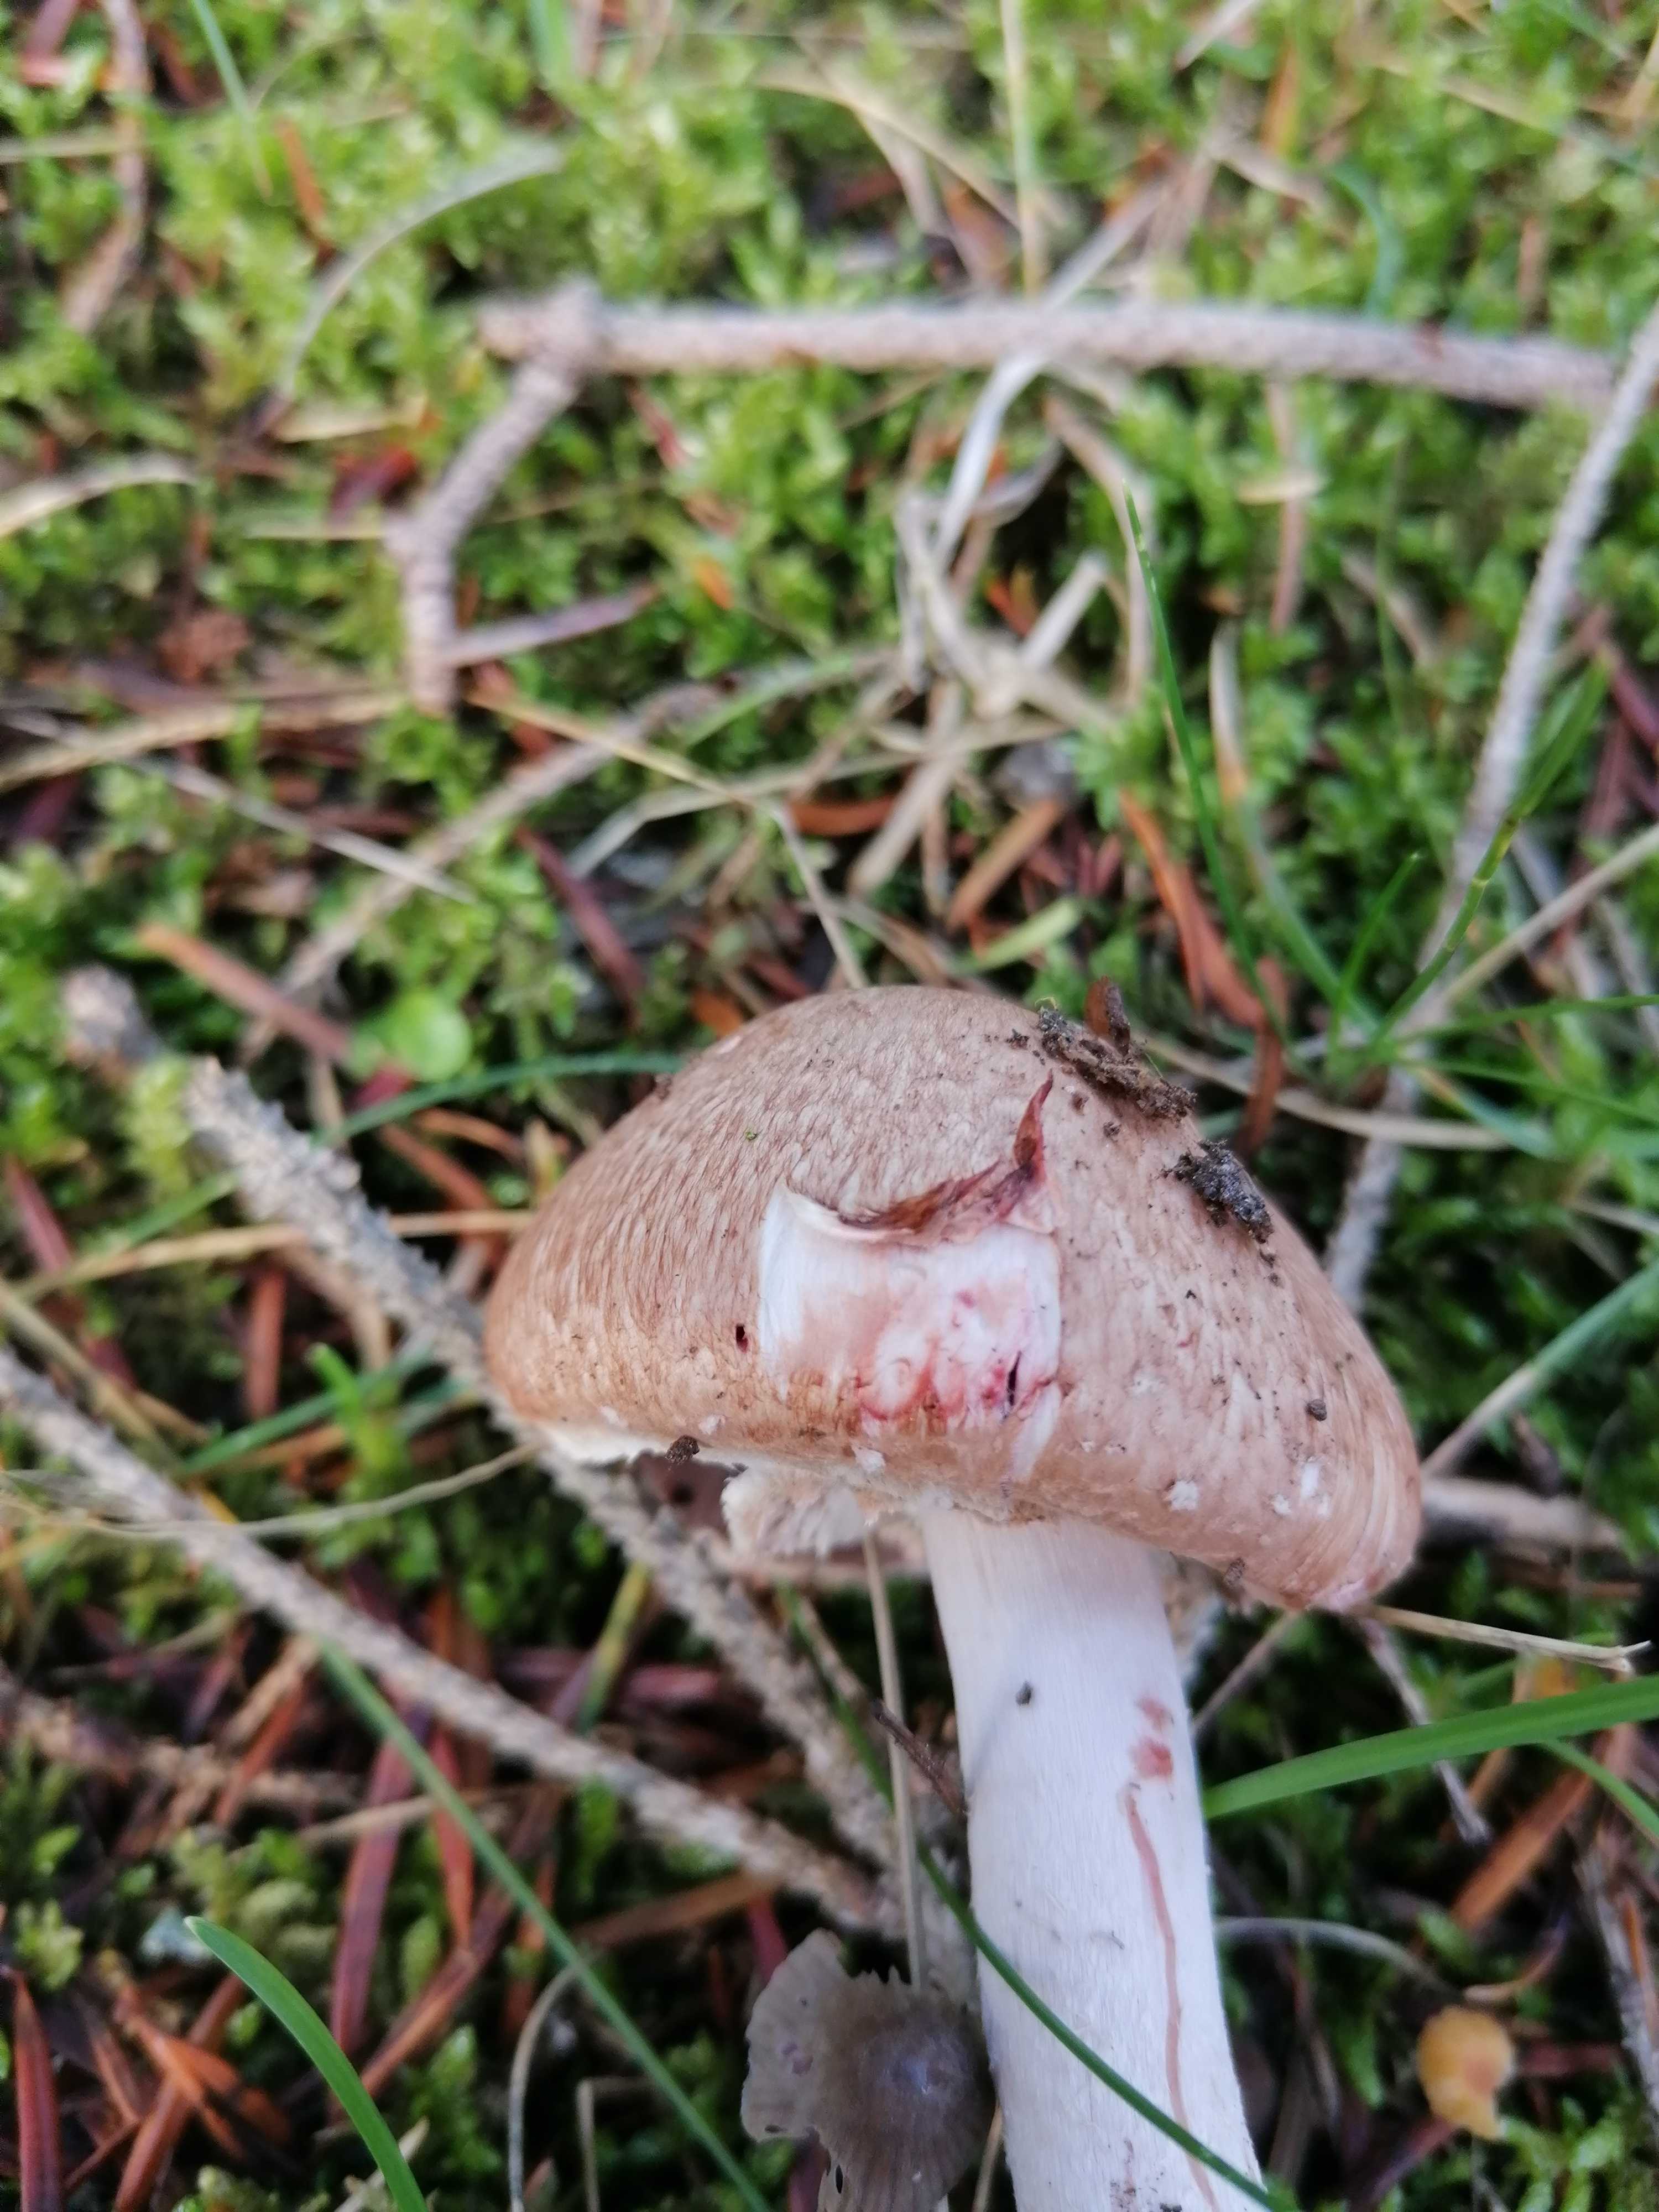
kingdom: Fungi
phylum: Basidiomycota
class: Agaricomycetes
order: Agaricales
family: Agaricaceae
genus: Agaricus
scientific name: Agaricus
